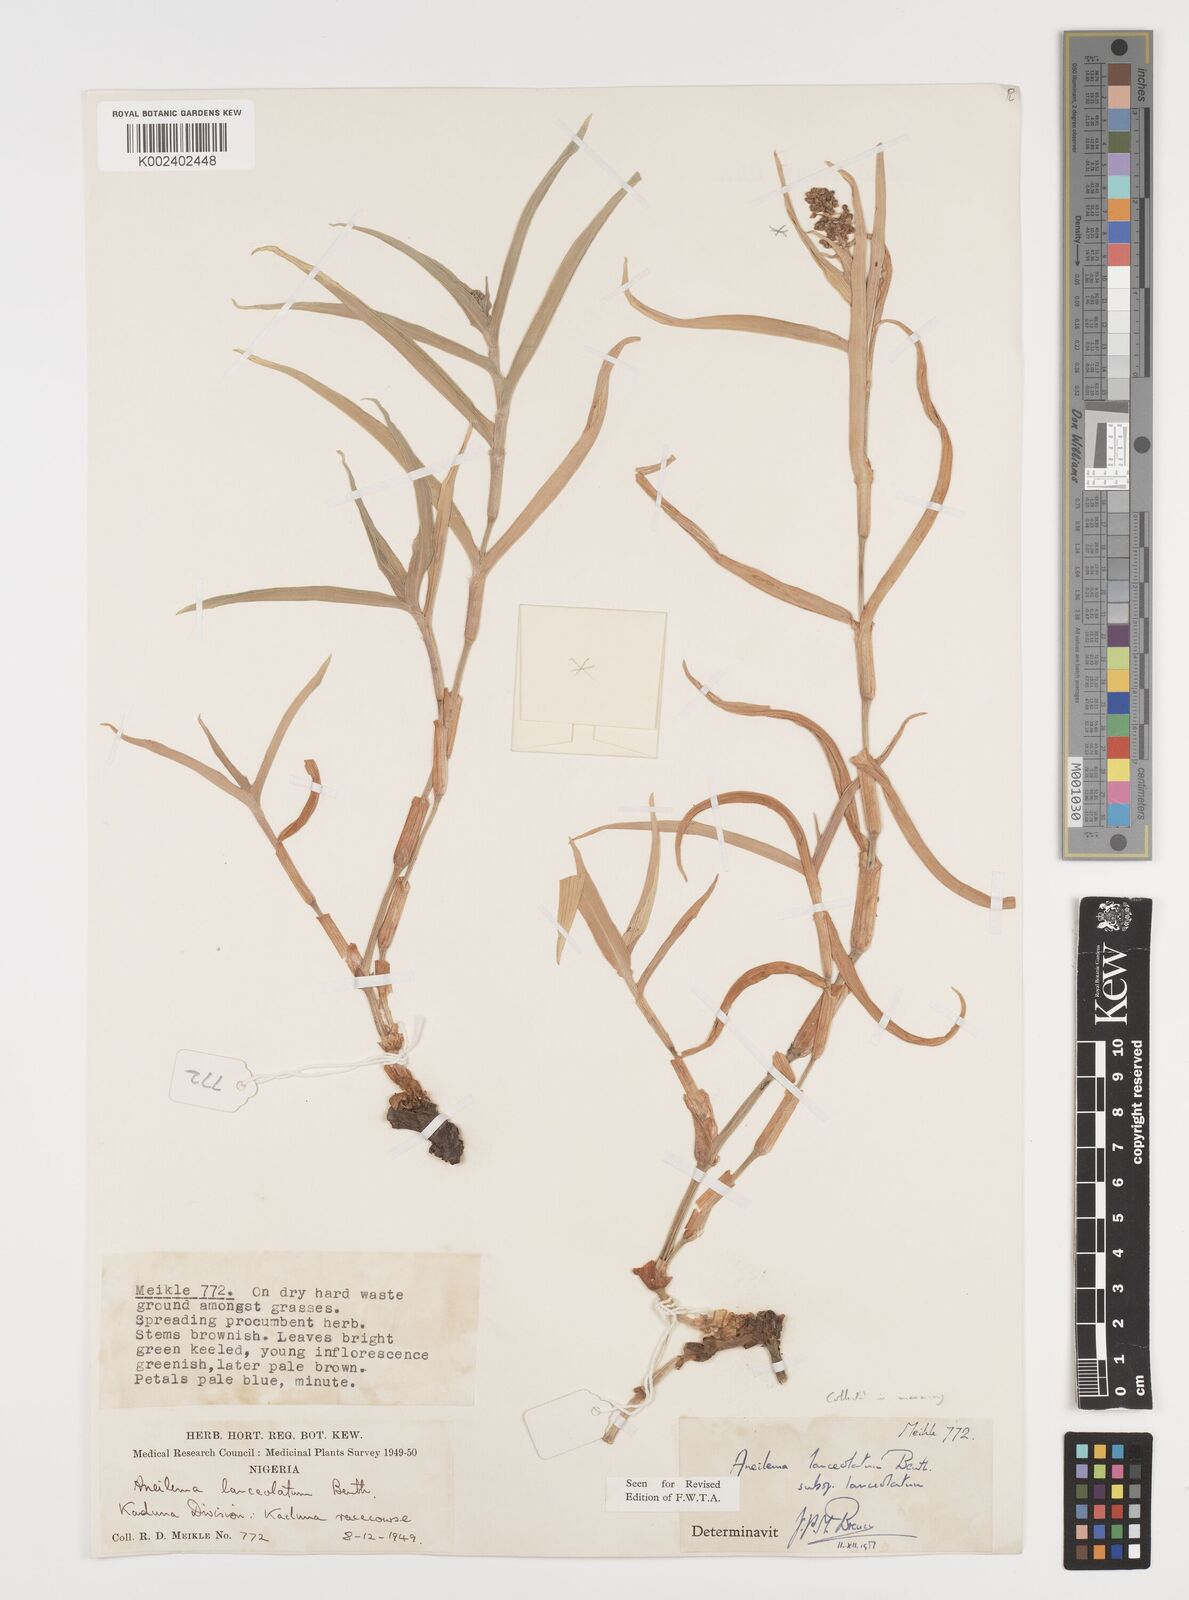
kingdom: Plantae
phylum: Tracheophyta
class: Liliopsida
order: Commelinales
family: Commelinaceae
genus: Aneilema
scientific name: Aneilema lanceolatum
